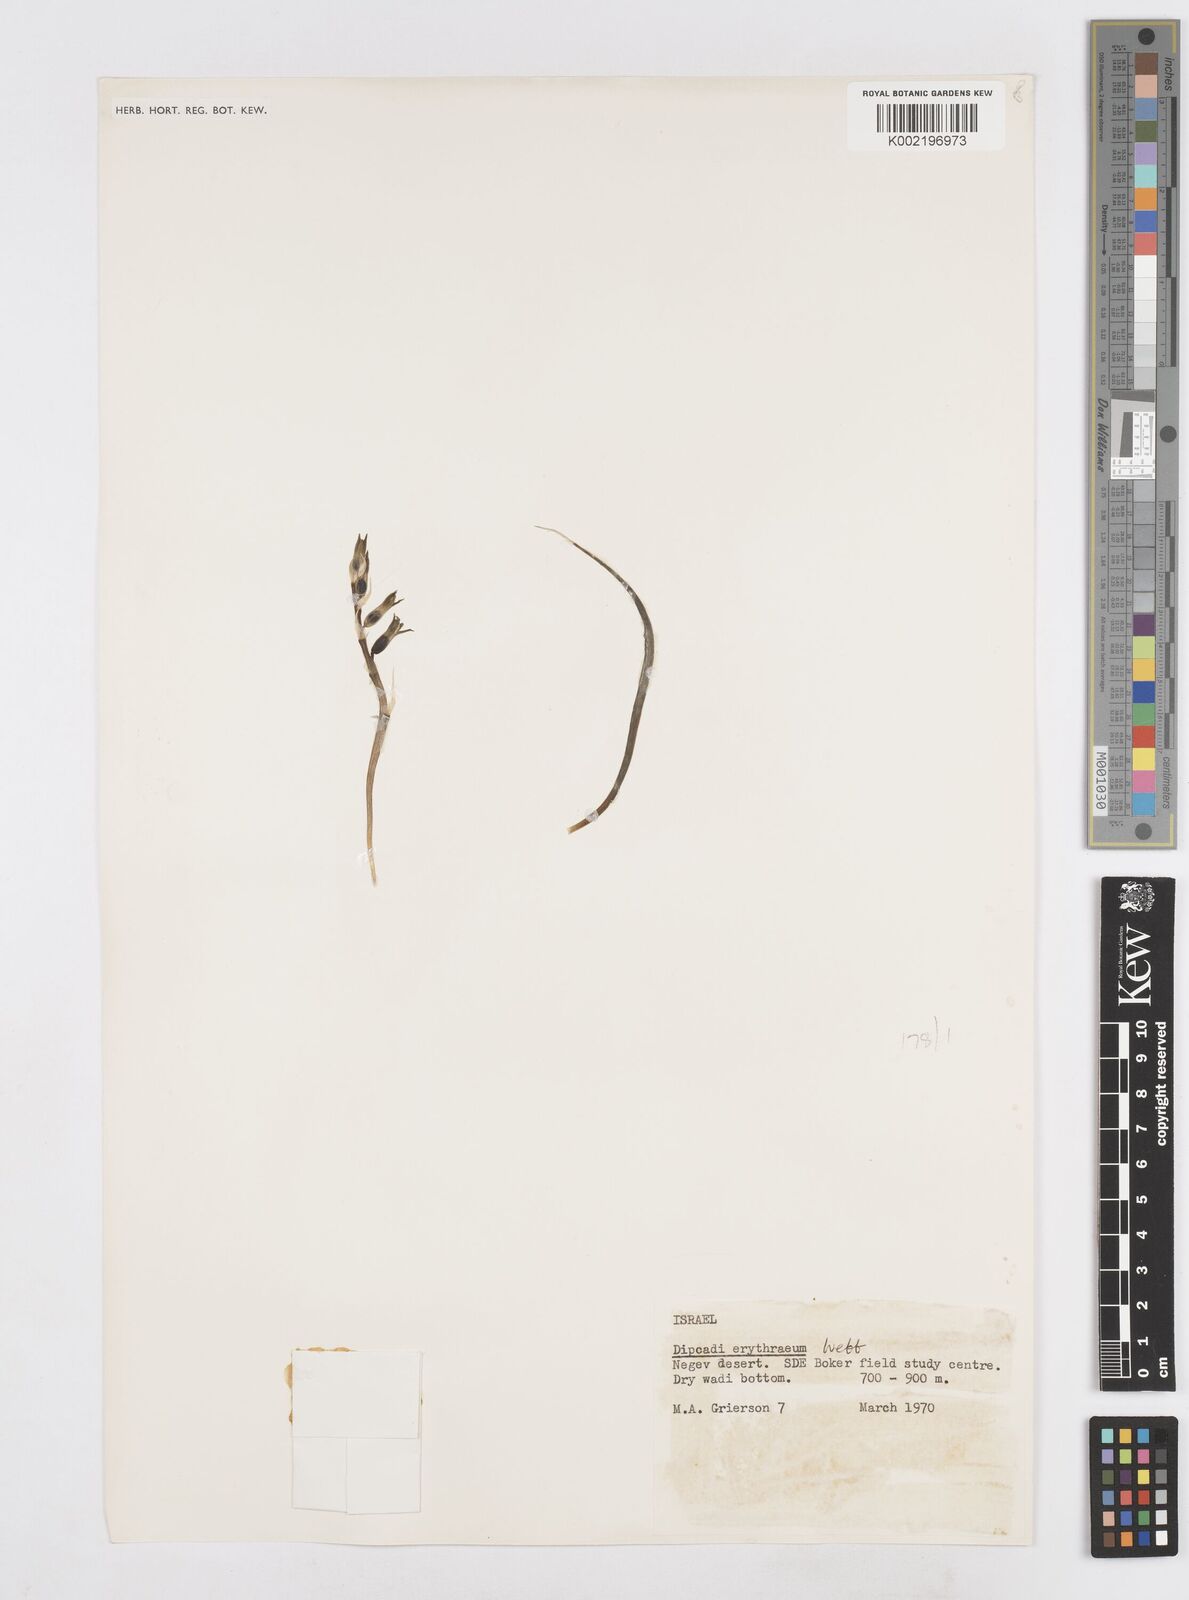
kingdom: Plantae
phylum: Tracheophyta
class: Liliopsida
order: Asparagales
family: Asparagaceae
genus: Dipcadi
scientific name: Dipcadi erythraeum
